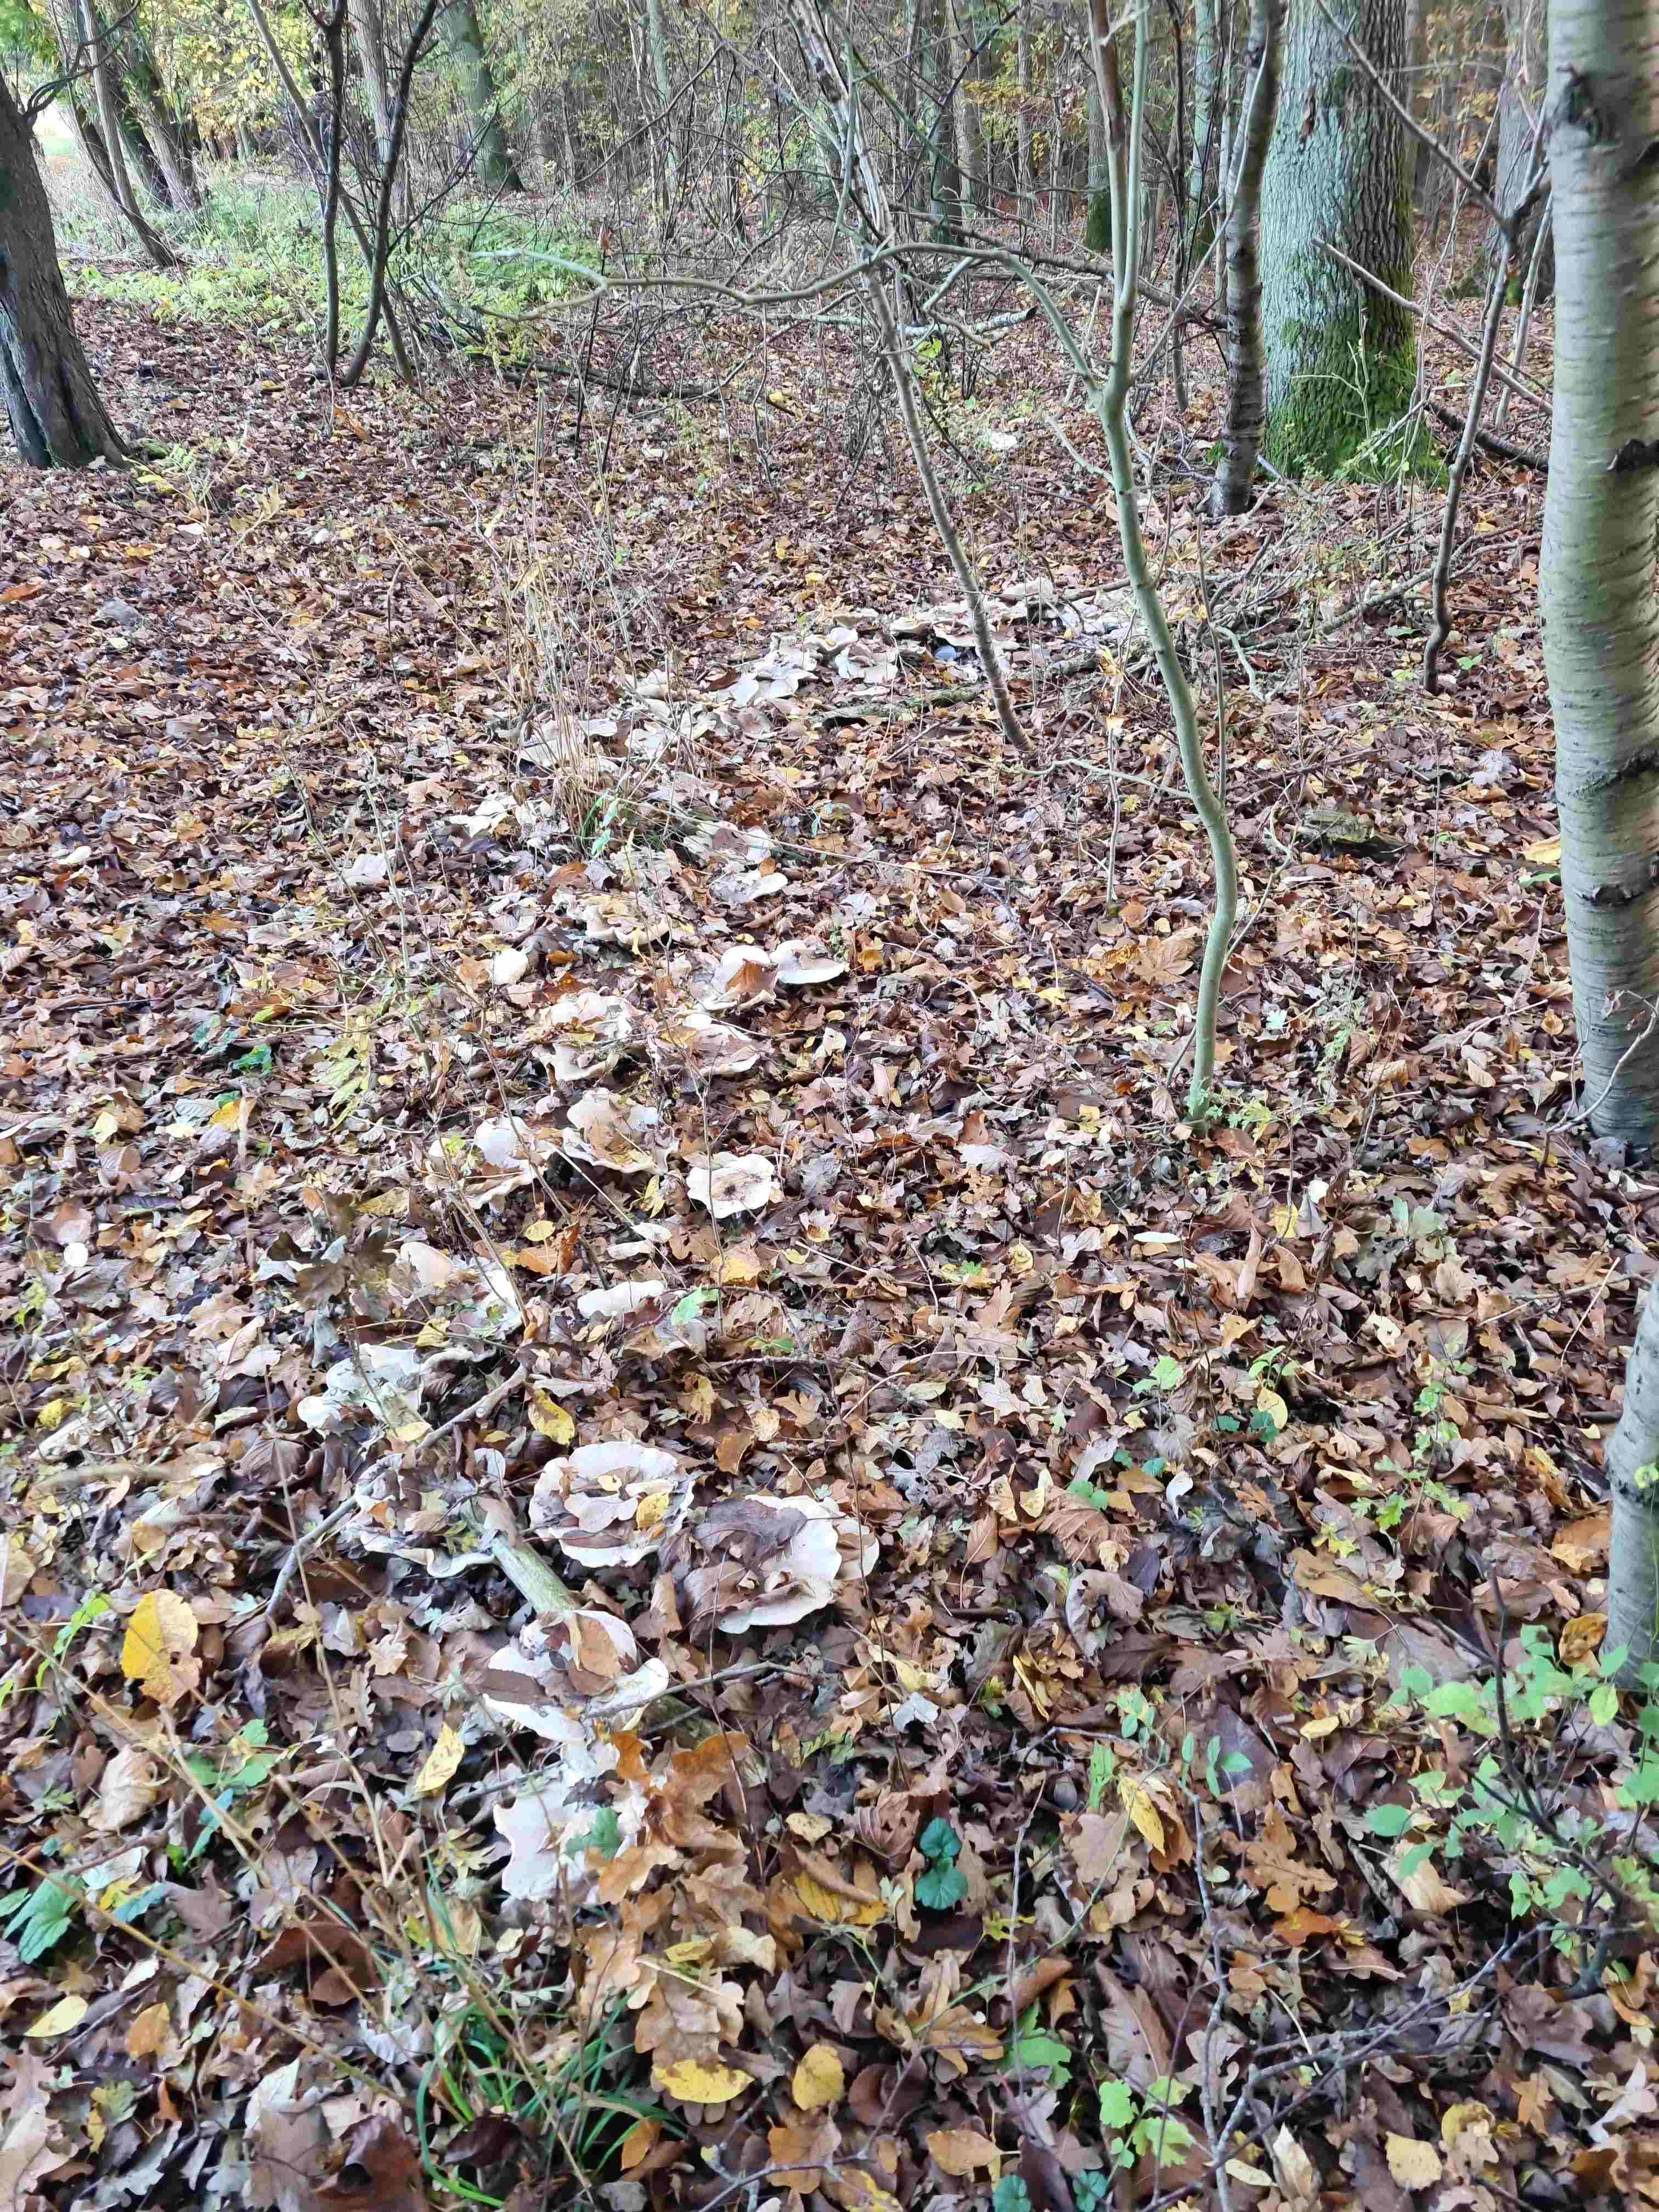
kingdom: Fungi
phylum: Basidiomycota
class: Agaricomycetes
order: Agaricales
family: Tricholomataceae
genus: Clitocybe
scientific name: Clitocybe nebularis
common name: tåge-tragthat
